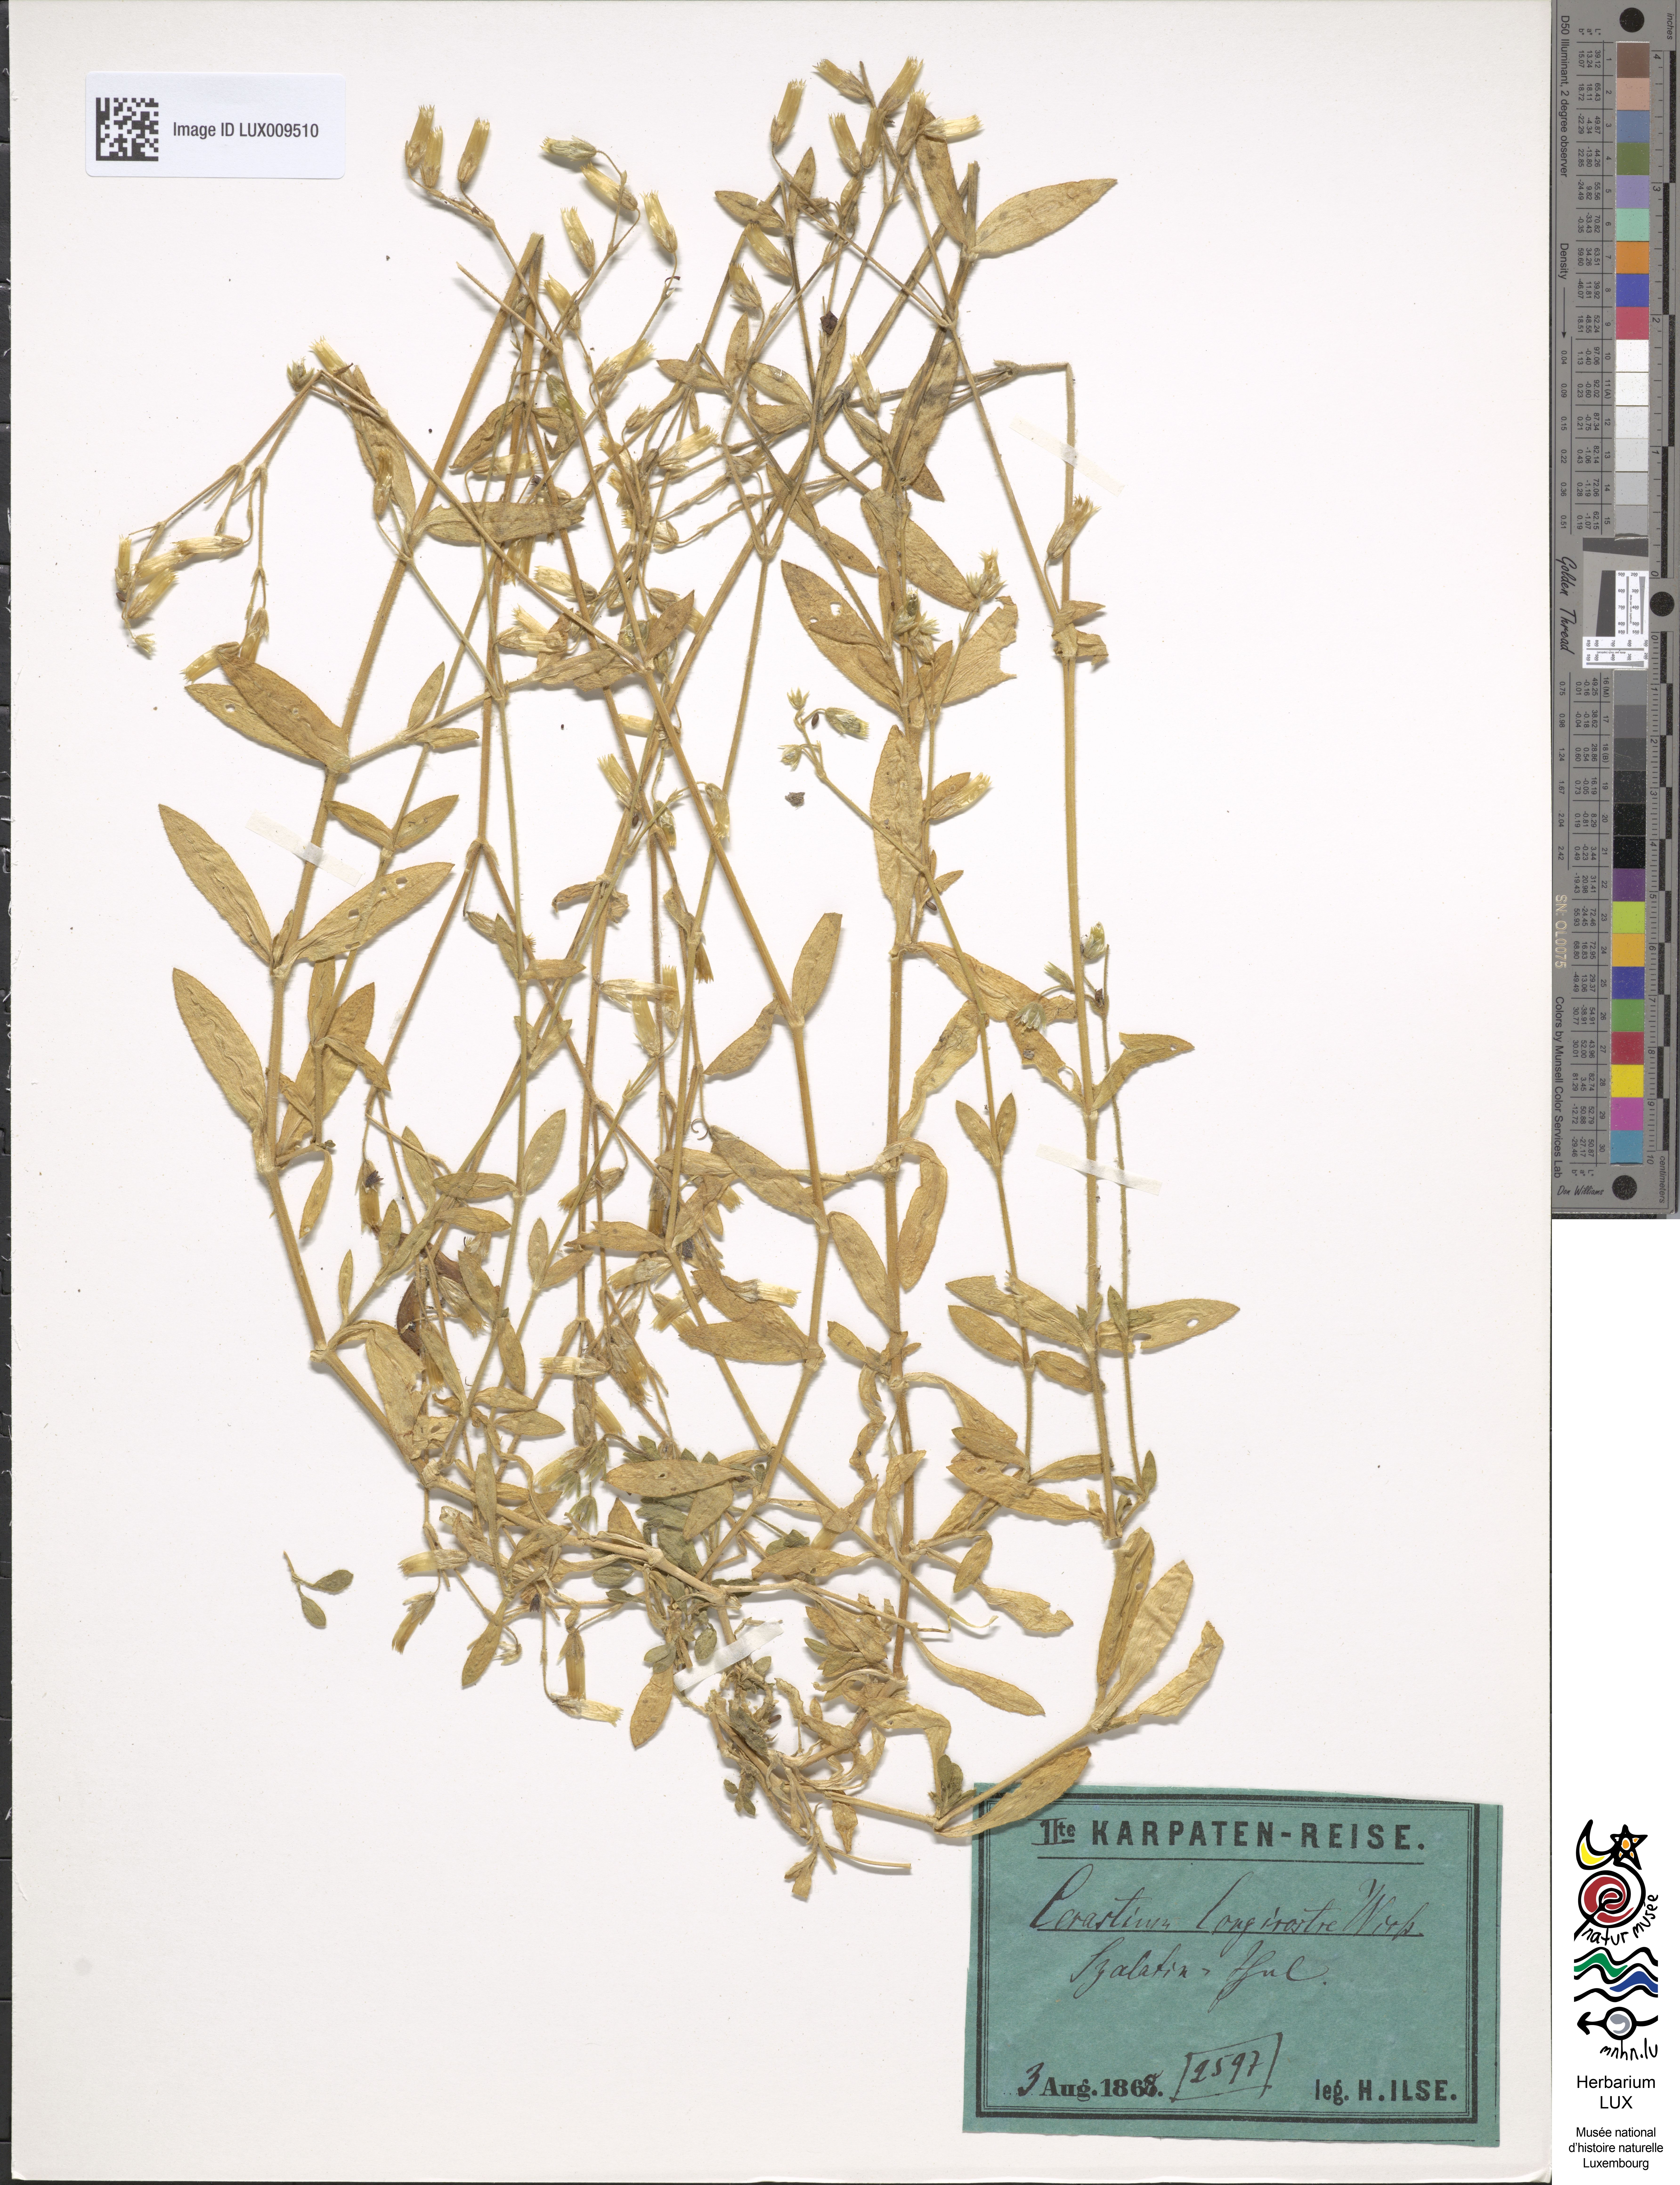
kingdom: Plantae
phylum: Tracheophyta
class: Magnoliopsida
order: Caryophyllales
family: Caryophyllaceae
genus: Cerastium
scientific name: Cerastium fontanum
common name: Common mouse-ear
